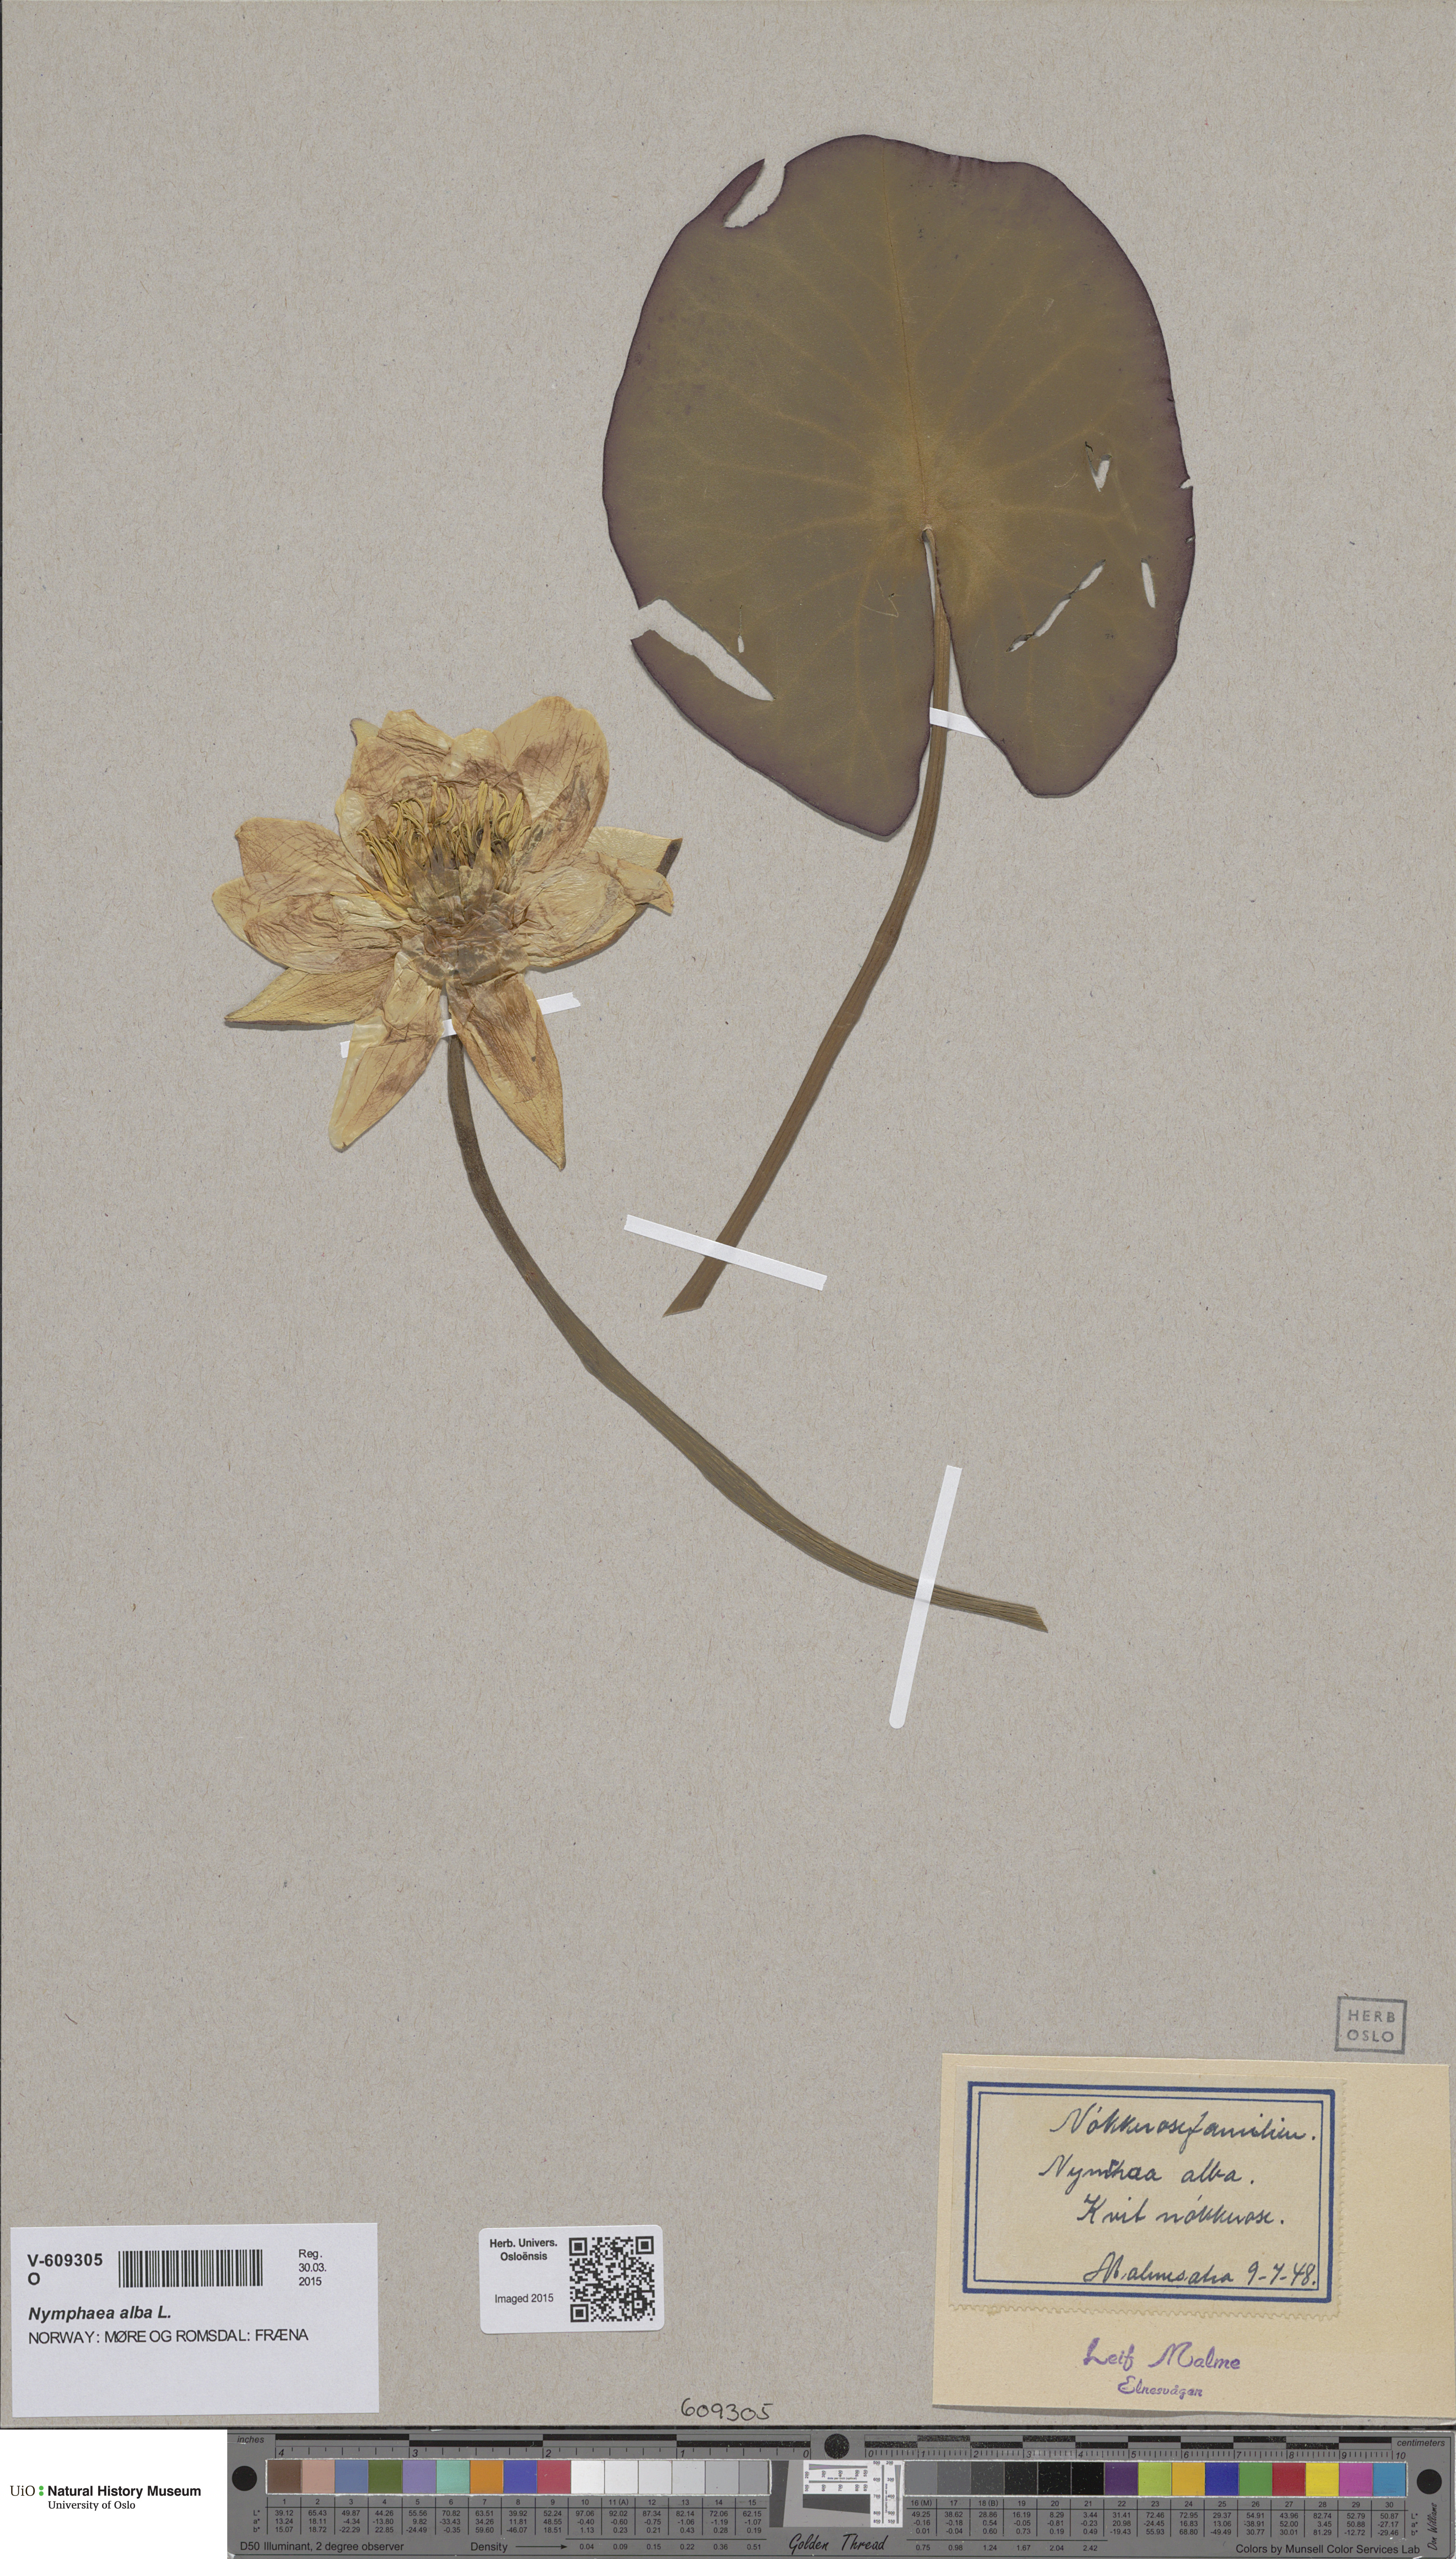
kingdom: Plantae
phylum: Tracheophyta
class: Magnoliopsida
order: Nymphaeales
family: Nymphaeaceae
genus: Nymphaea
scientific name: Nymphaea alba
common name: White water-lily
